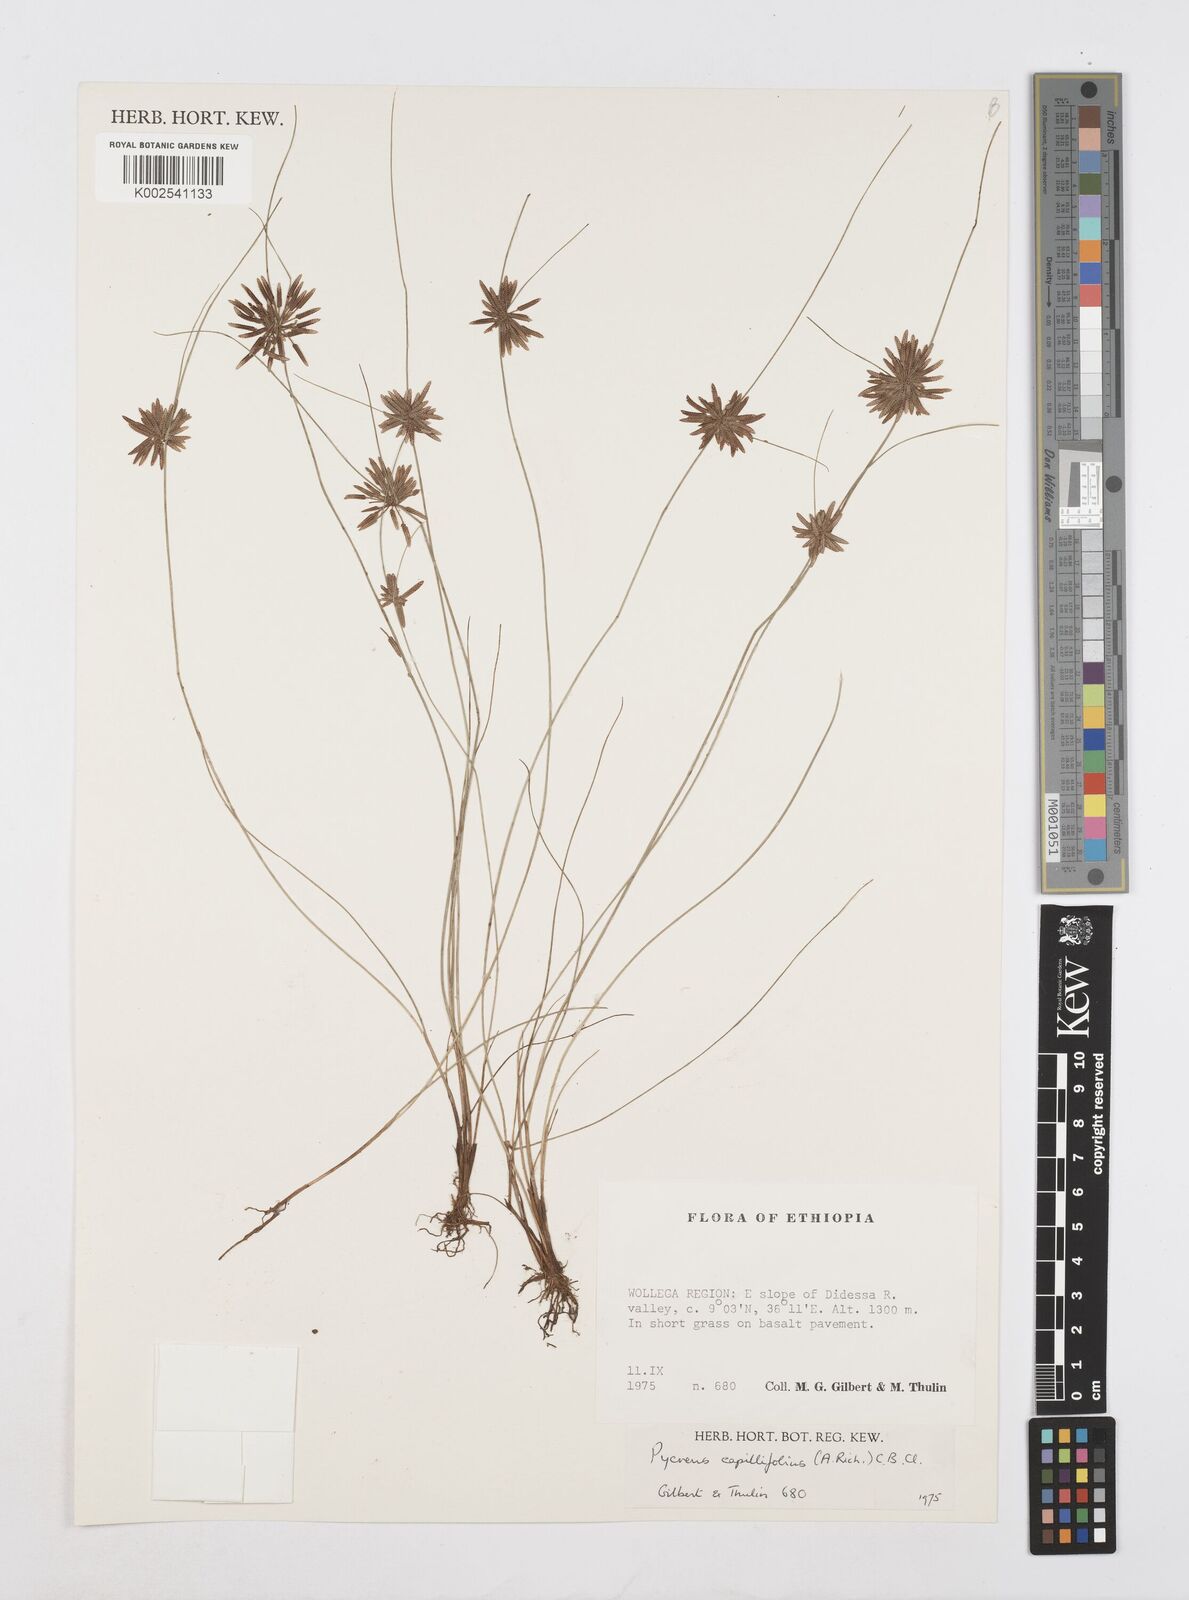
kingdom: Plantae
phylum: Tracheophyta
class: Liliopsida
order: Poales
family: Cyperaceae
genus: Cyperus
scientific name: Cyperus capillifolius
